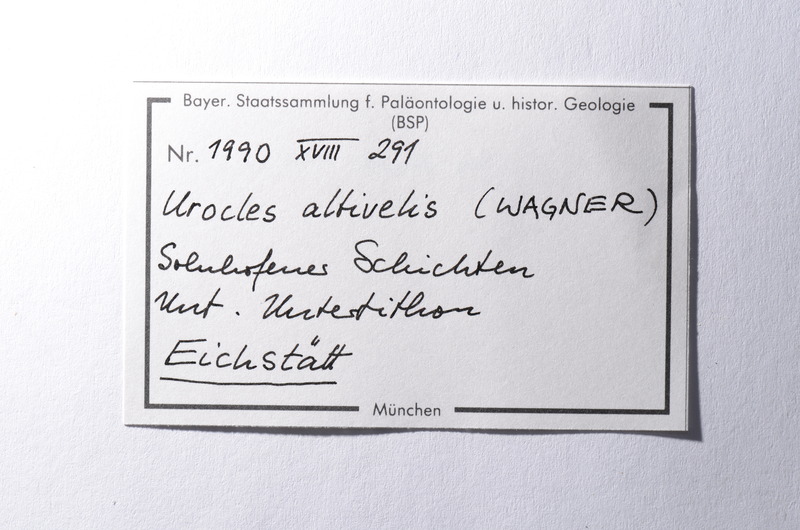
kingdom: Animalia
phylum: Chordata
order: Amiiformes
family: Amiidae
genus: Solnhofenamia
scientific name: Solnhofenamia elongata
